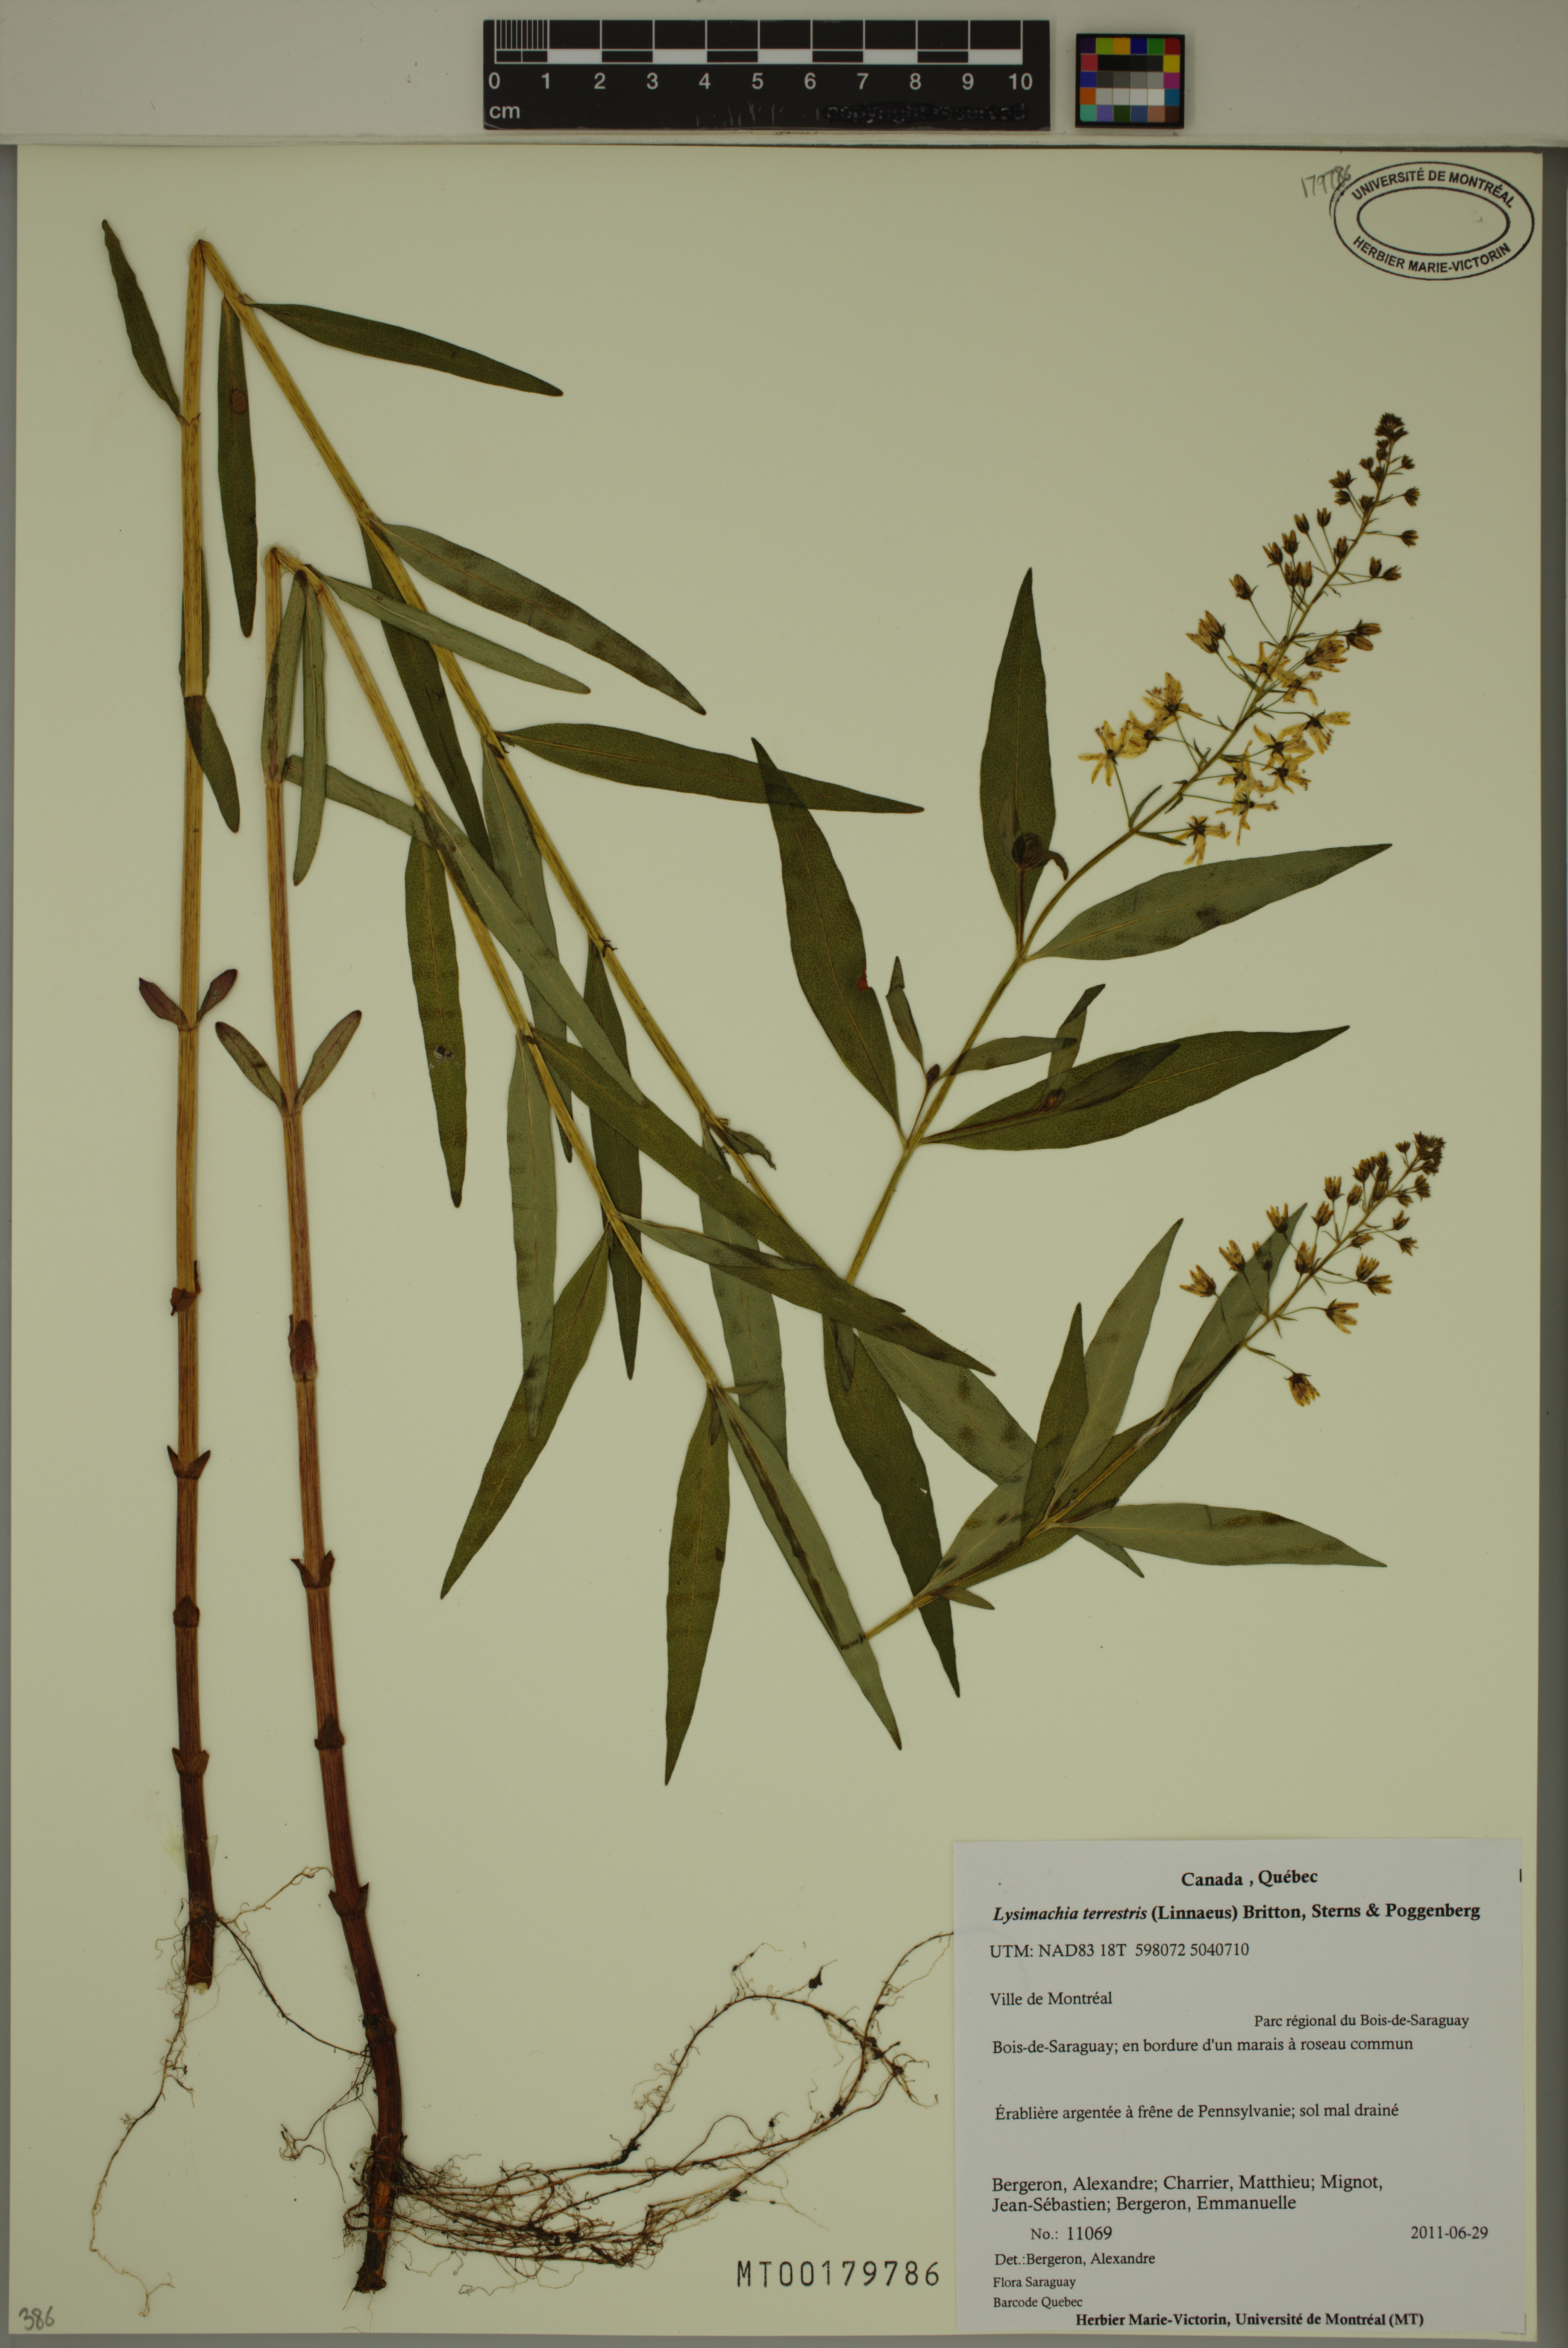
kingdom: Plantae
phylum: Tracheophyta
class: Magnoliopsida
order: Ericales
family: Primulaceae
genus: Lysimachia
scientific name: Lysimachia terrestris
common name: Lake loosestrife
